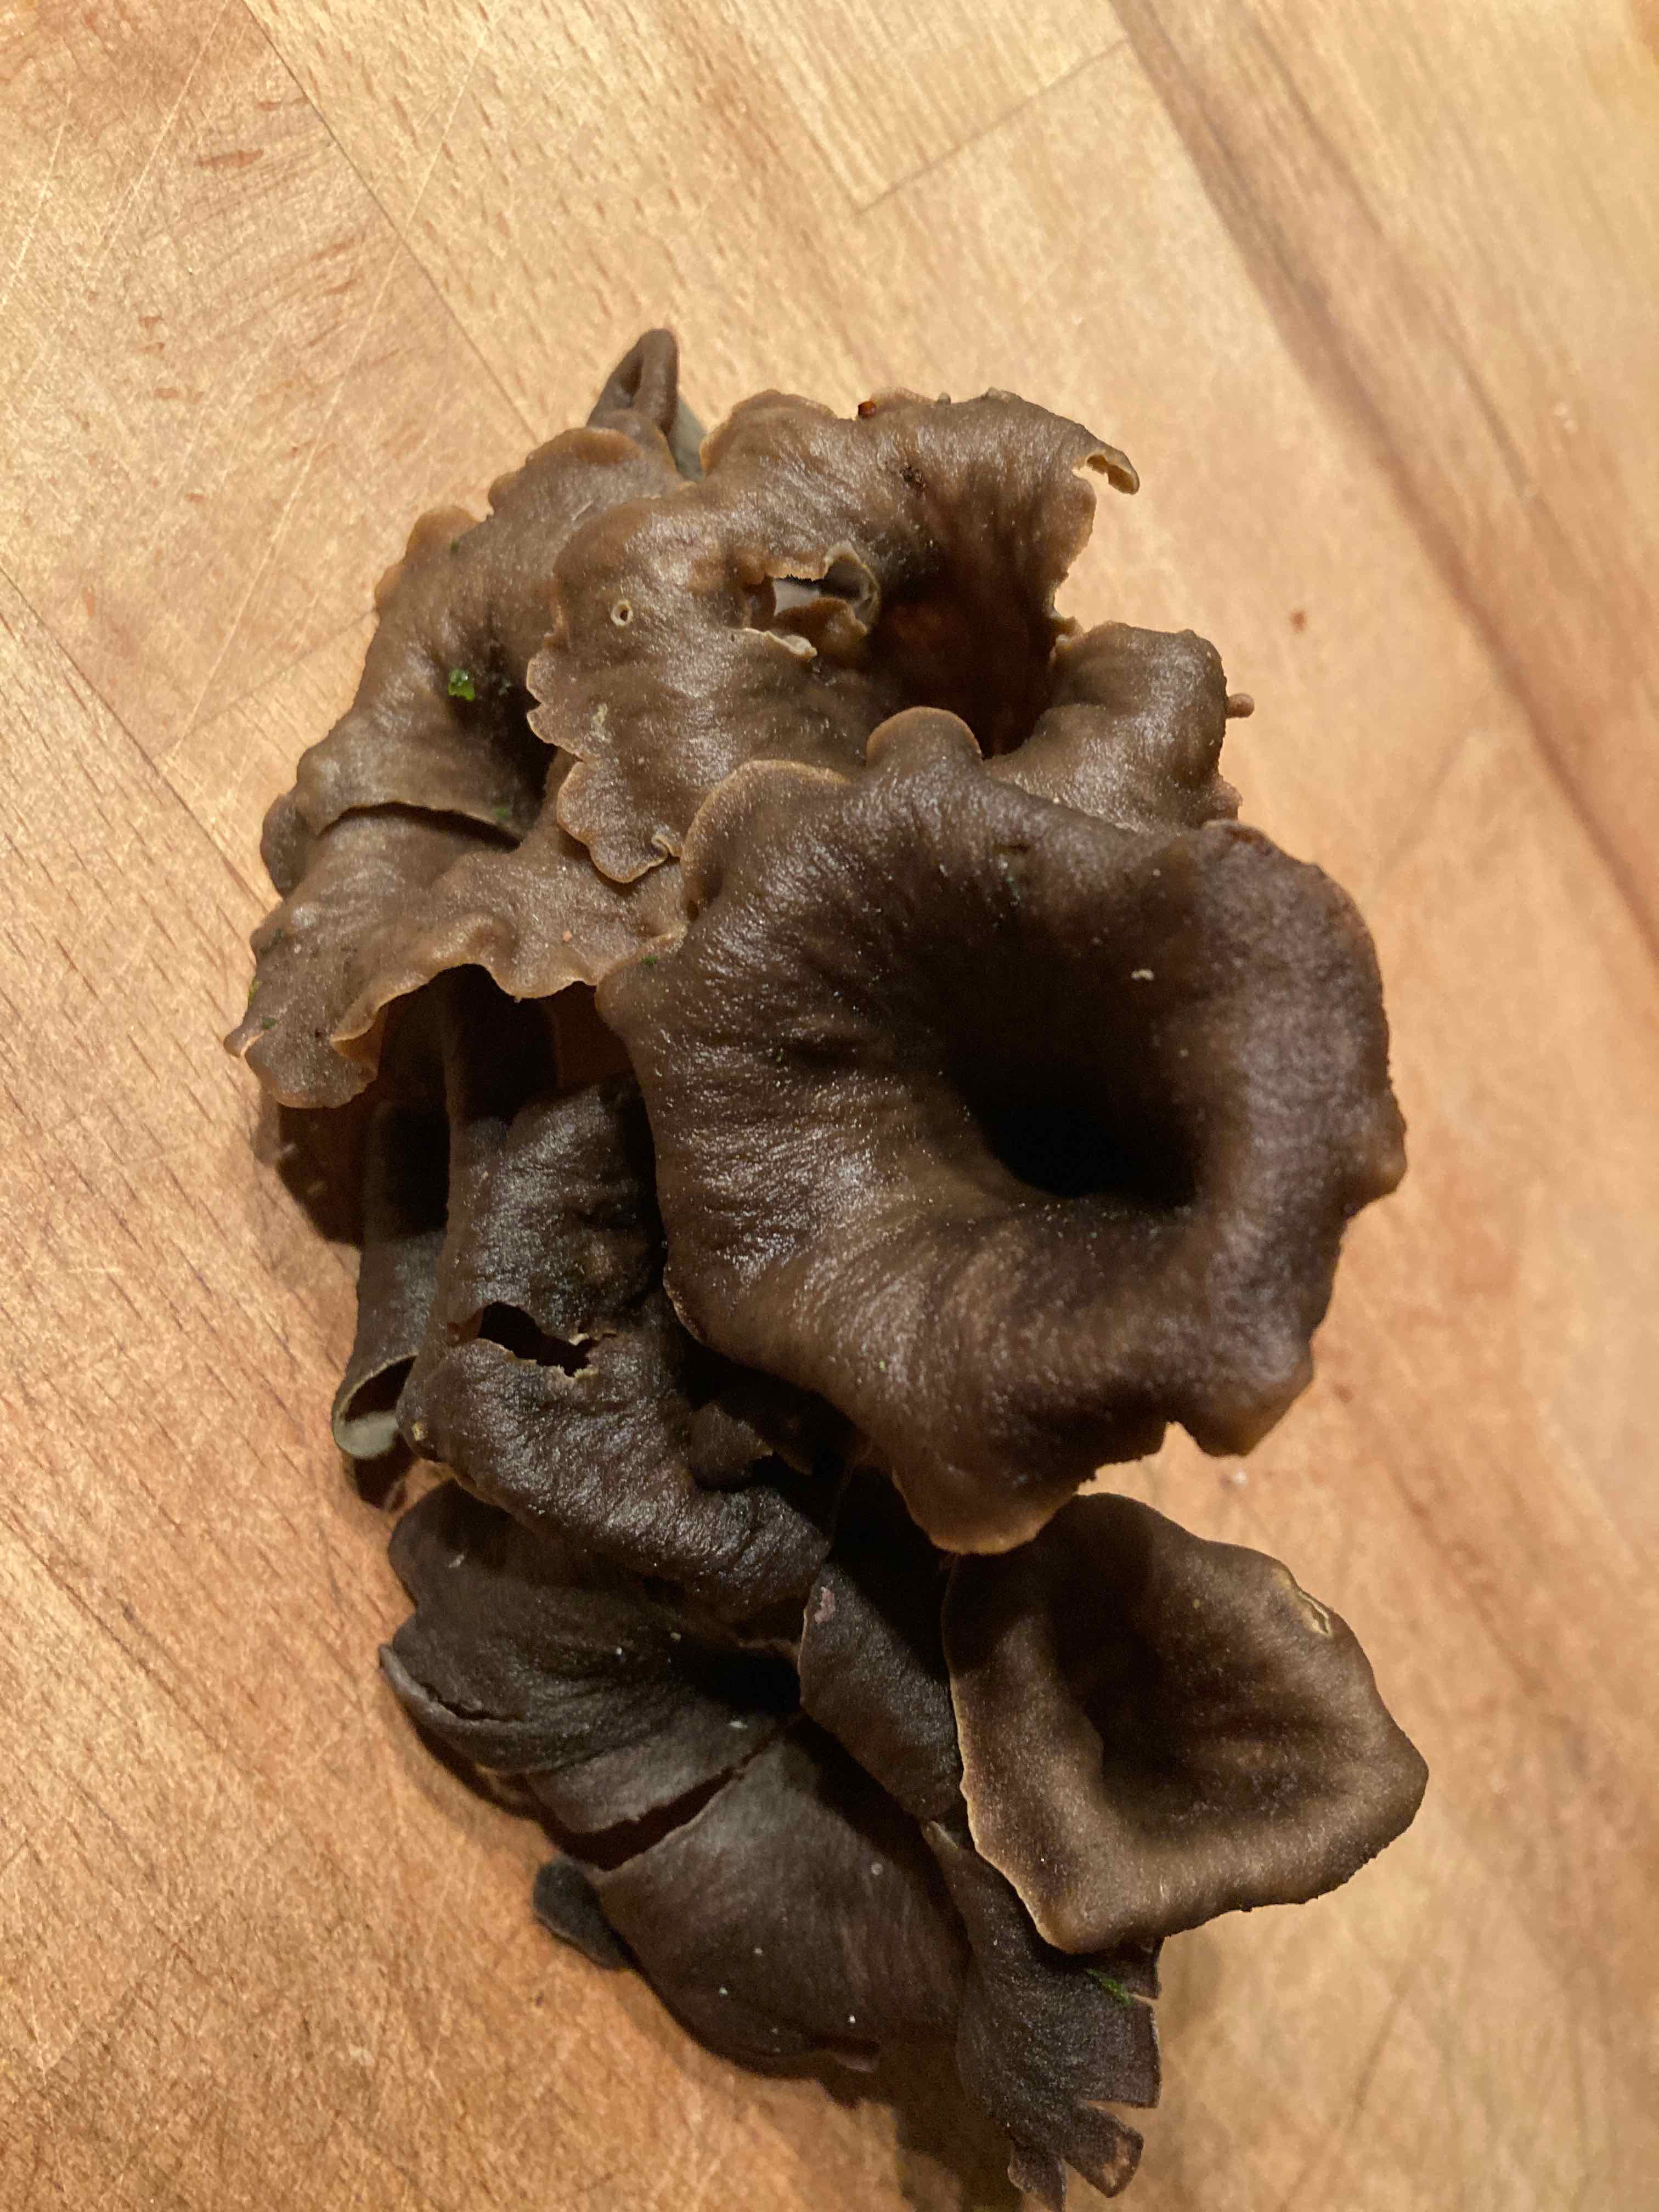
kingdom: Fungi
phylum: Basidiomycota
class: Agaricomycetes
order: Cantharellales
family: Hydnaceae
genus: Craterellus
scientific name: Craterellus cornucopioides
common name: trompetsvamp
